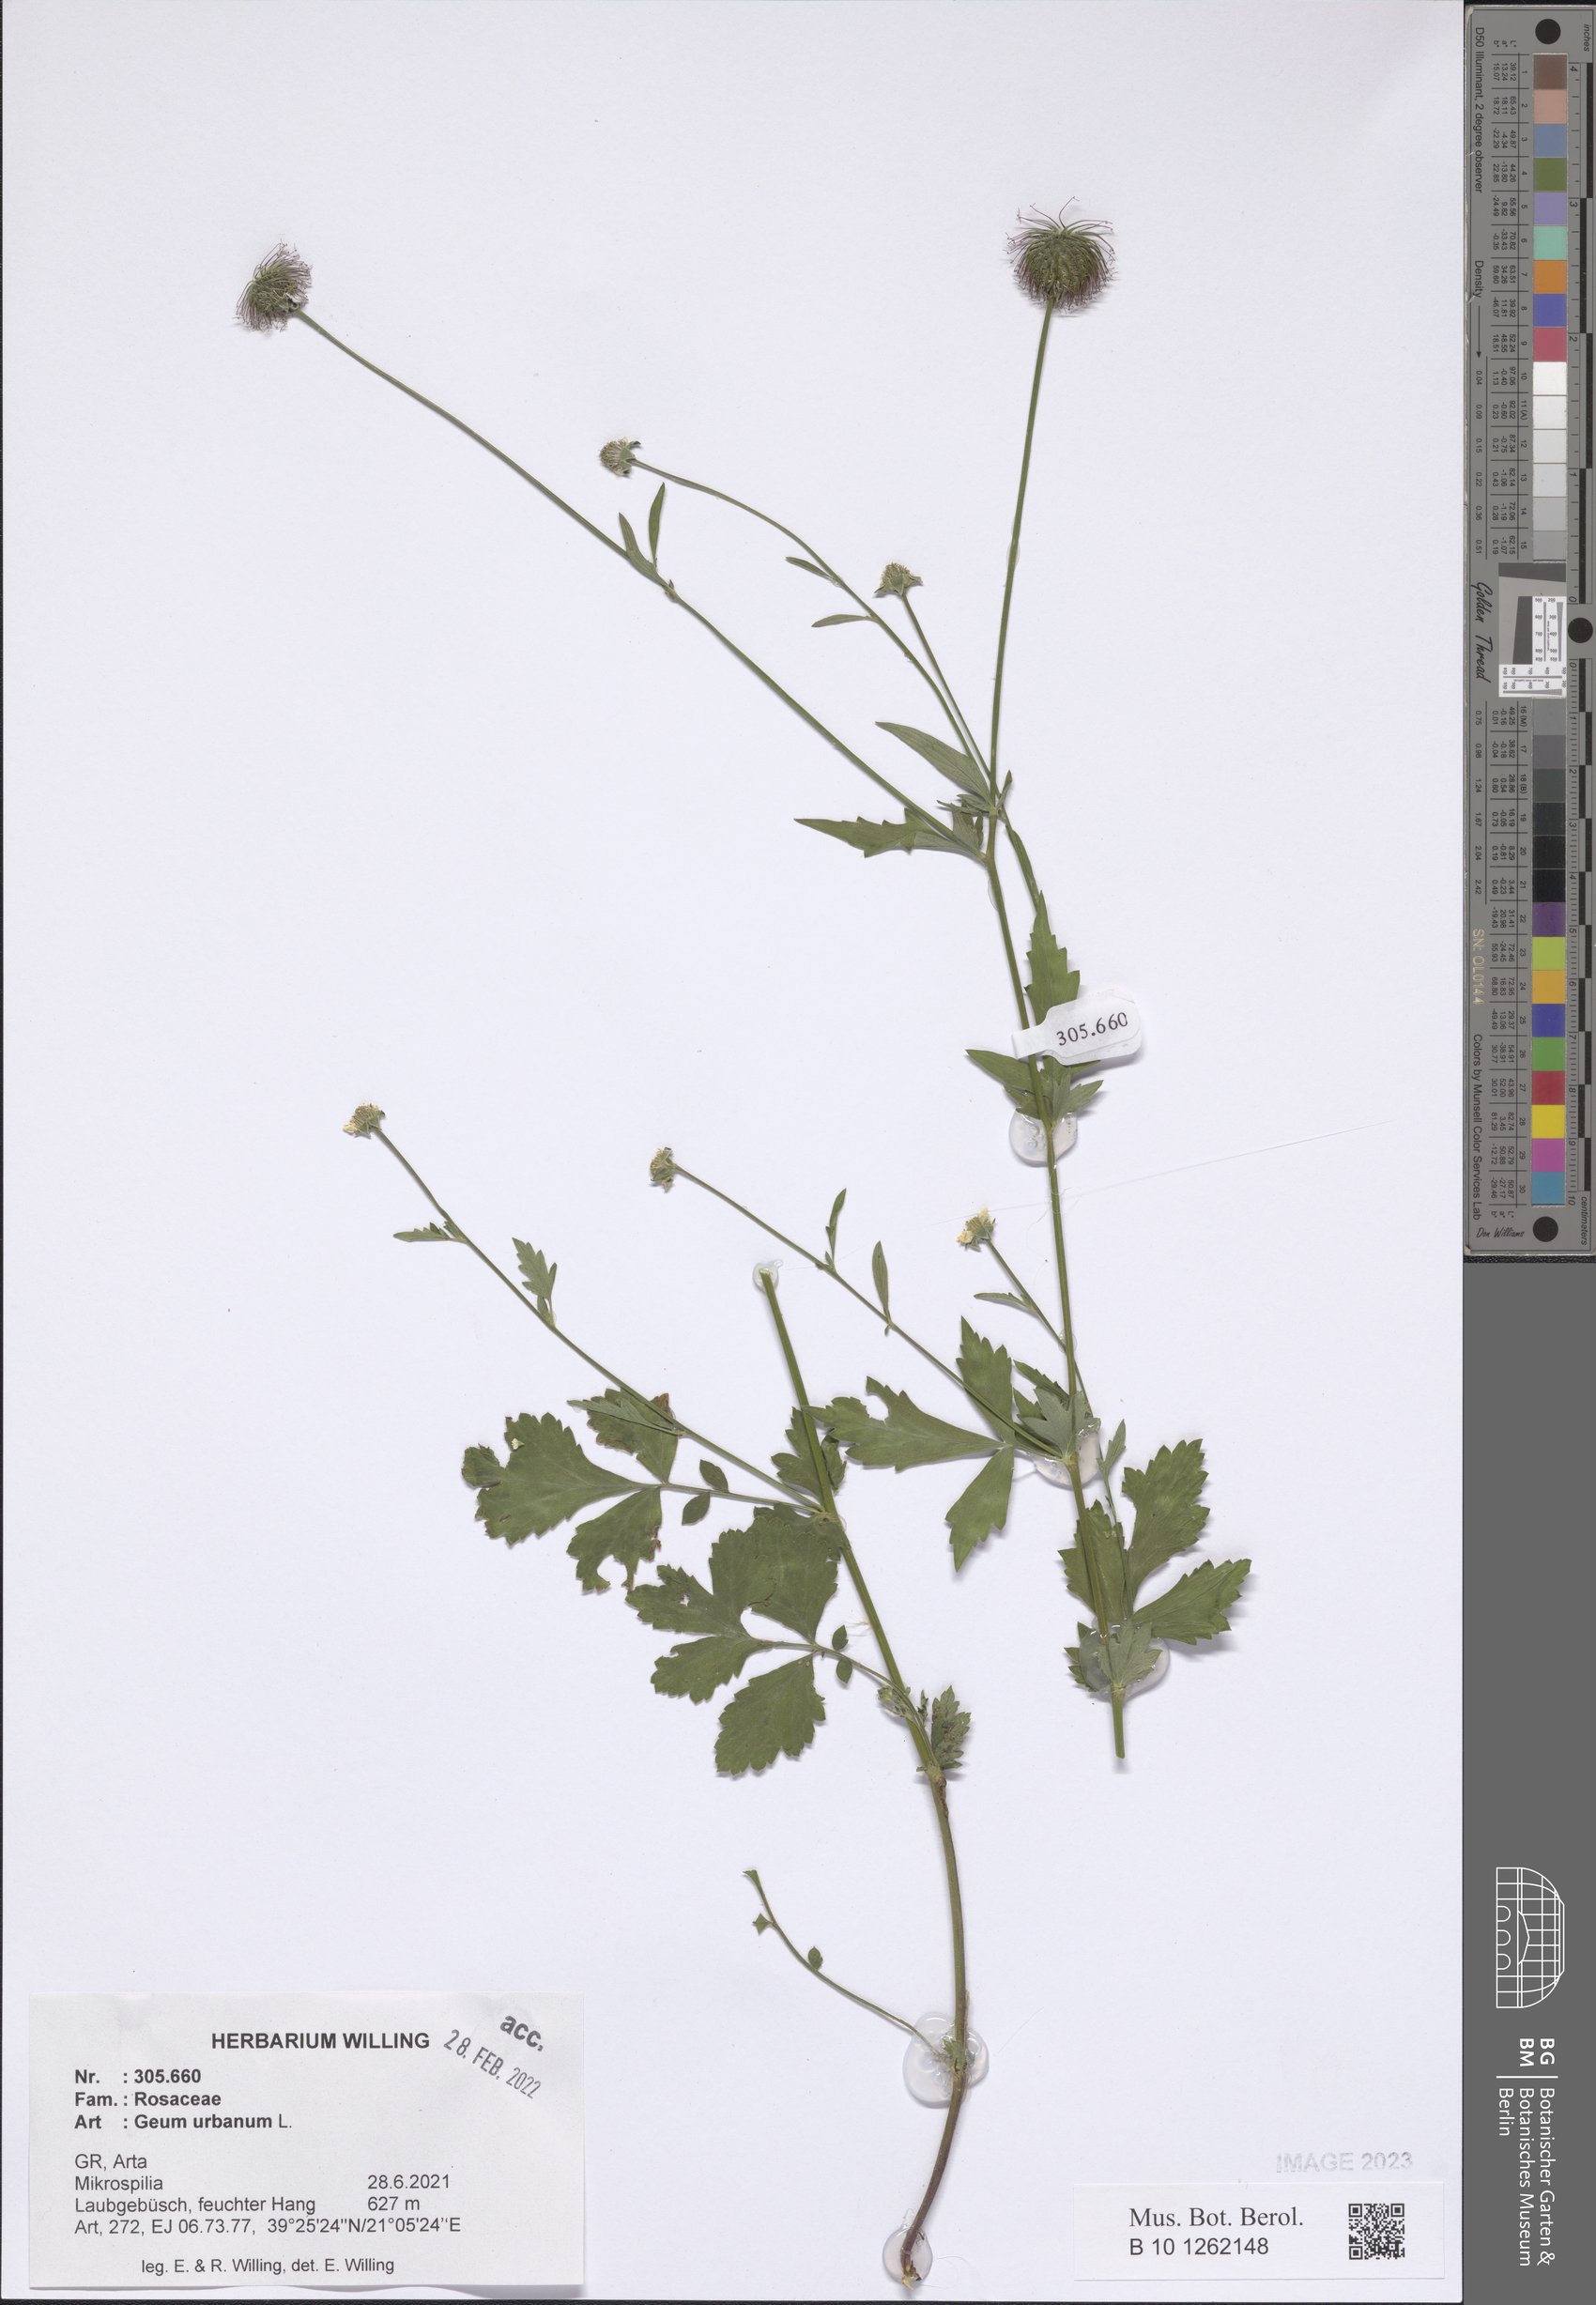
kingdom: Plantae
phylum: Tracheophyta
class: Magnoliopsida
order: Rosales
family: Rosaceae
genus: Geum
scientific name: Geum urbanum
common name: Wood avens
